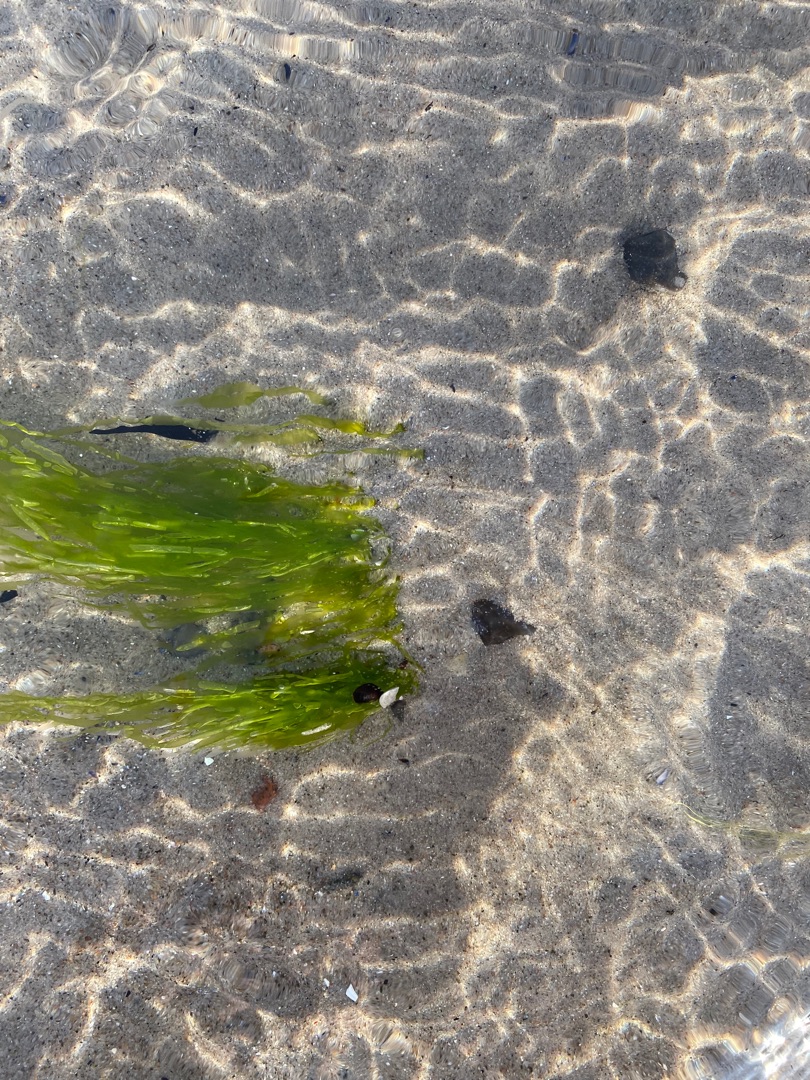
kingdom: Plantae
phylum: Chlorophyta
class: Ulvophyceae
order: Ulvales
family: Ulvaceae
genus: Ulva
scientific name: Ulva intestinalis
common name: Tarm-rørhinde
